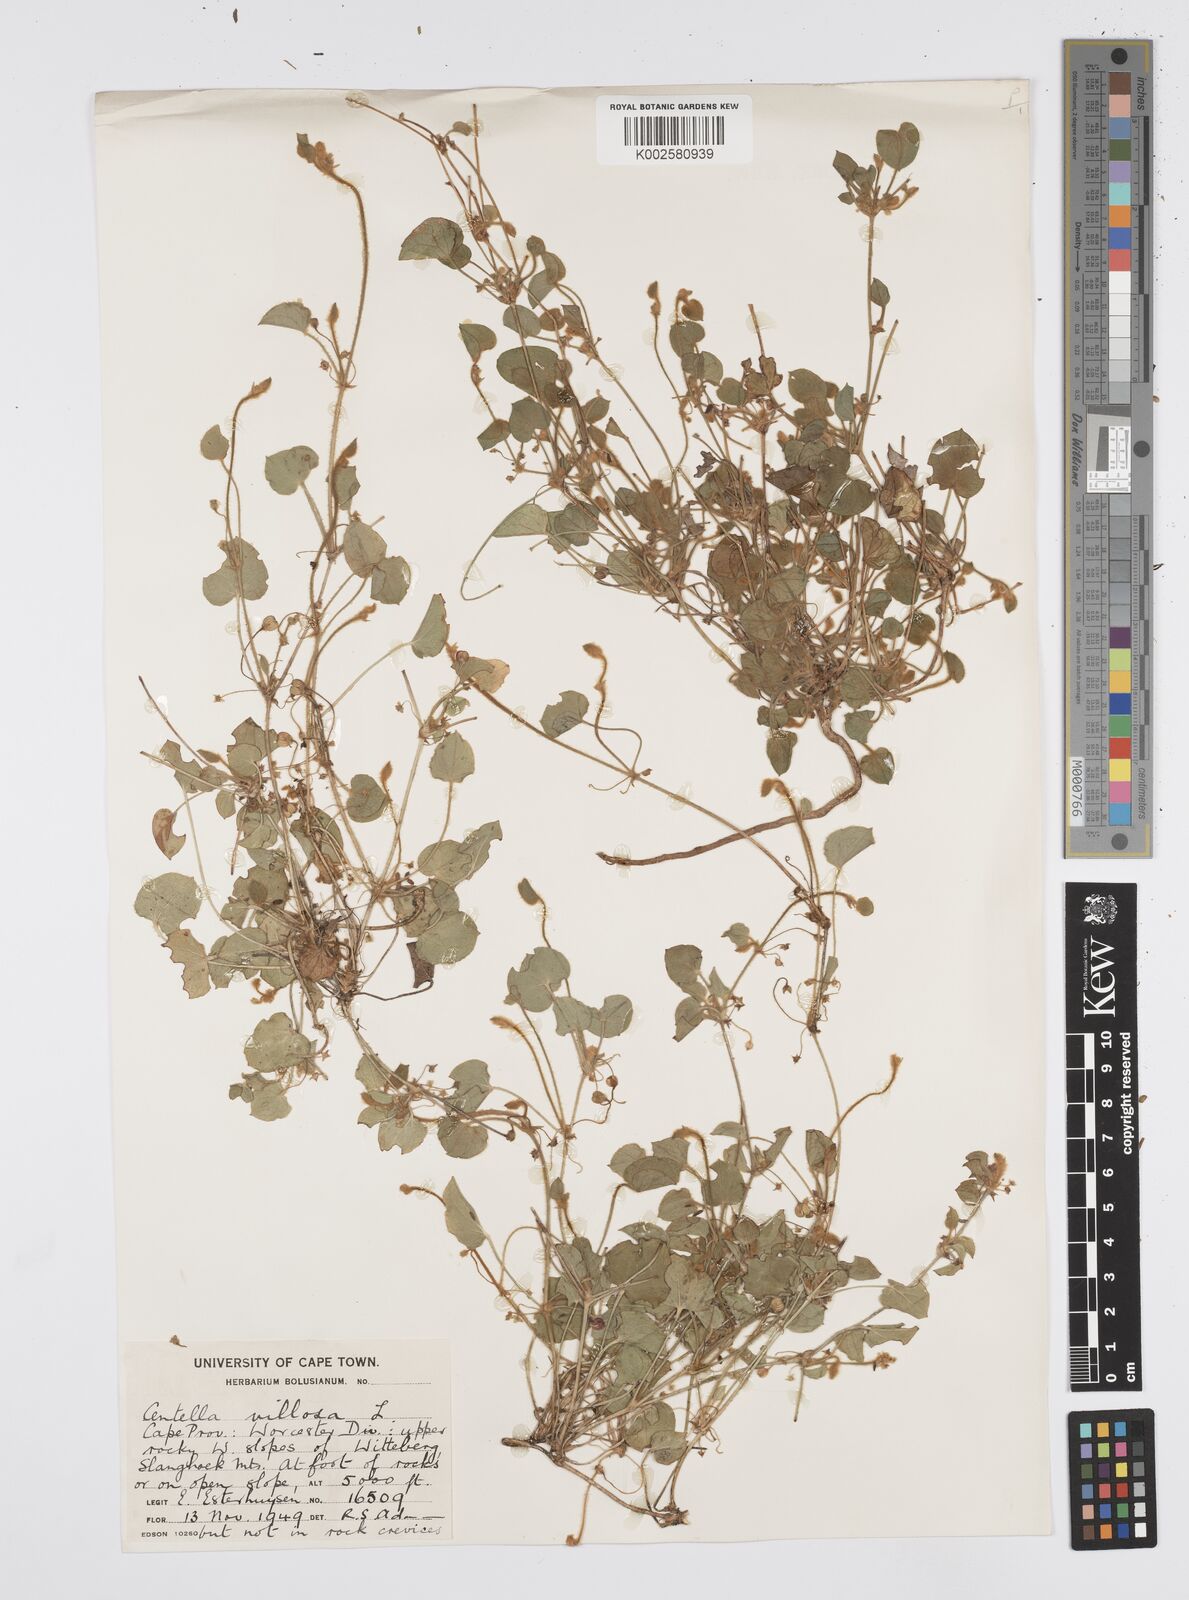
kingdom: Plantae
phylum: Tracheophyta
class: Magnoliopsida
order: Apiales
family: Apiaceae
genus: Centella
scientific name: Centella villosa
